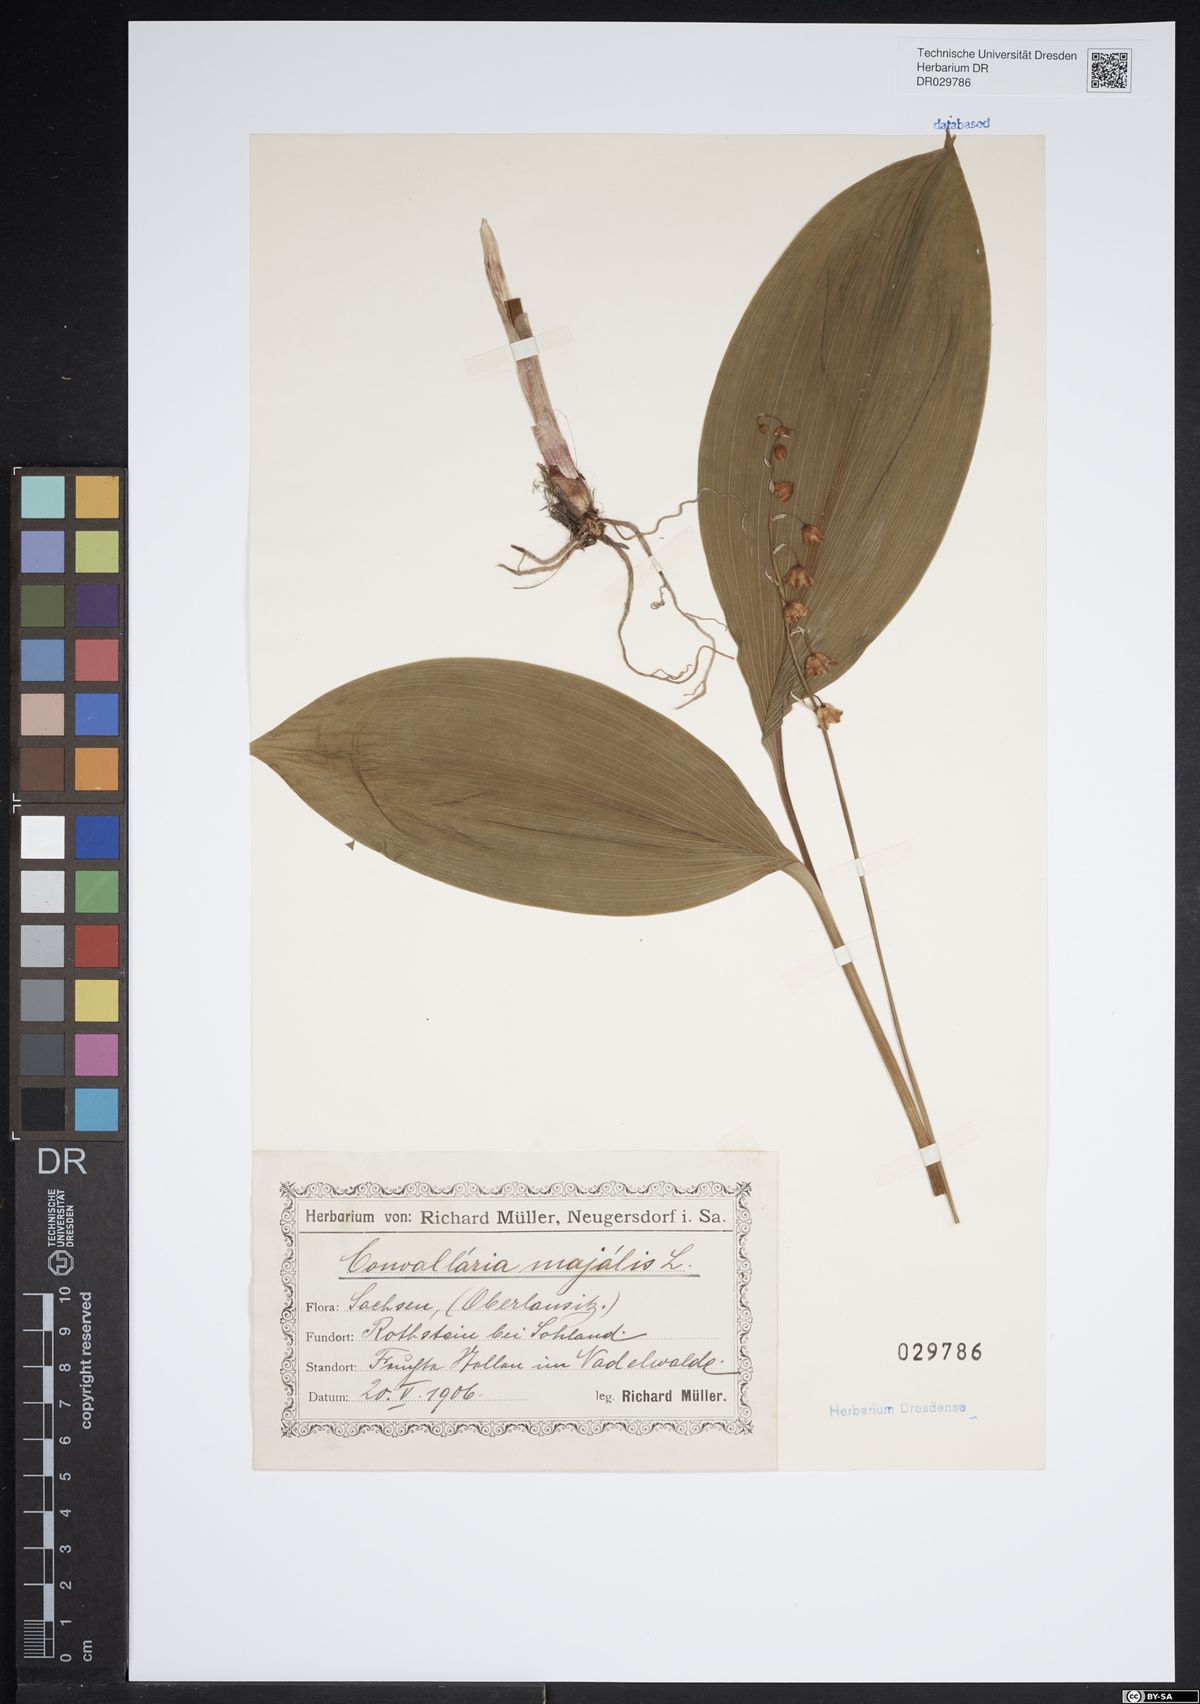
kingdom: Plantae
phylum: Tracheophyta
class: Liliopsida
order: Asparagales
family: Asparagaceae
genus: Convallaria
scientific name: Convallaria majalis
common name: Lily-of-the-valley
